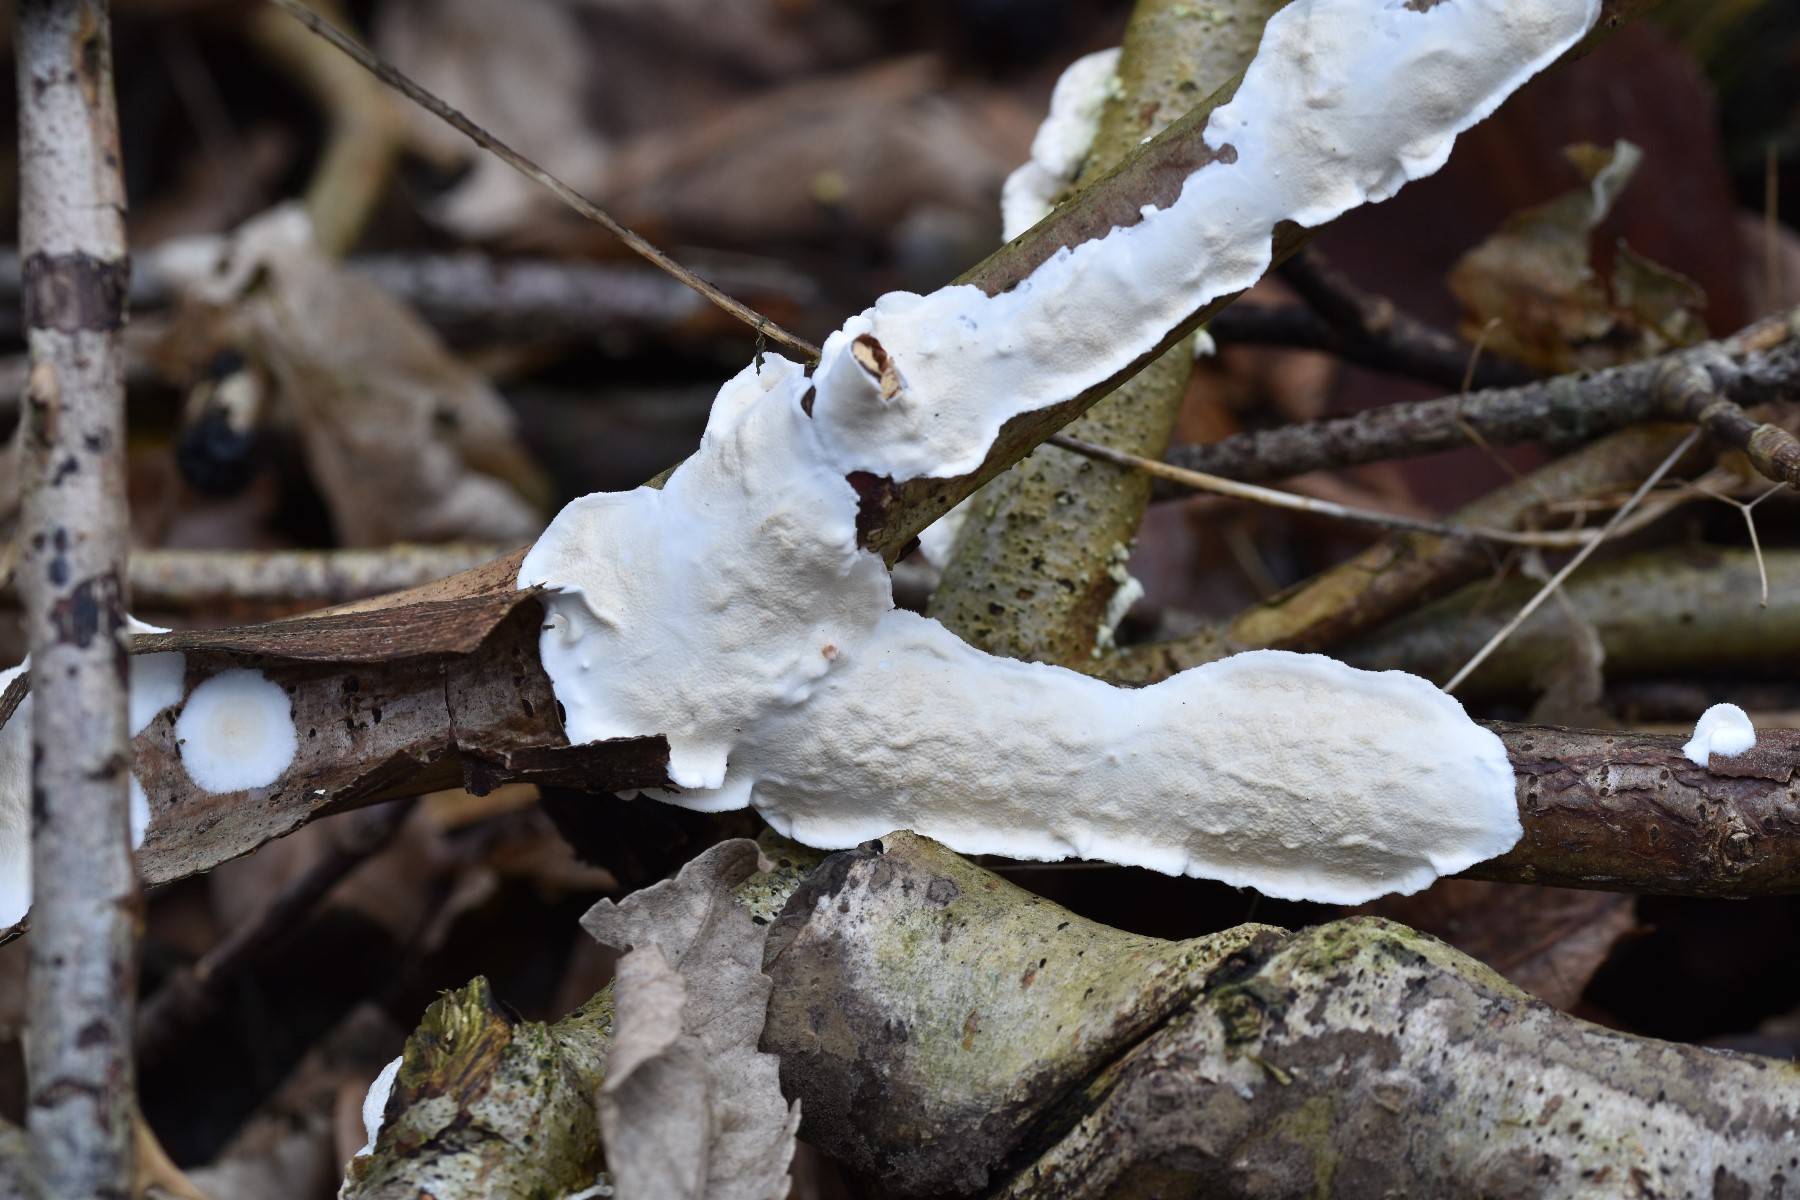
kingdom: Fungi
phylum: Basidiomycota
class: Agaricomycetes
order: Polyporales
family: Irpicaceae
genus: Byssomerulius
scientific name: Byssomerulius corium
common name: læder-åresvamp
